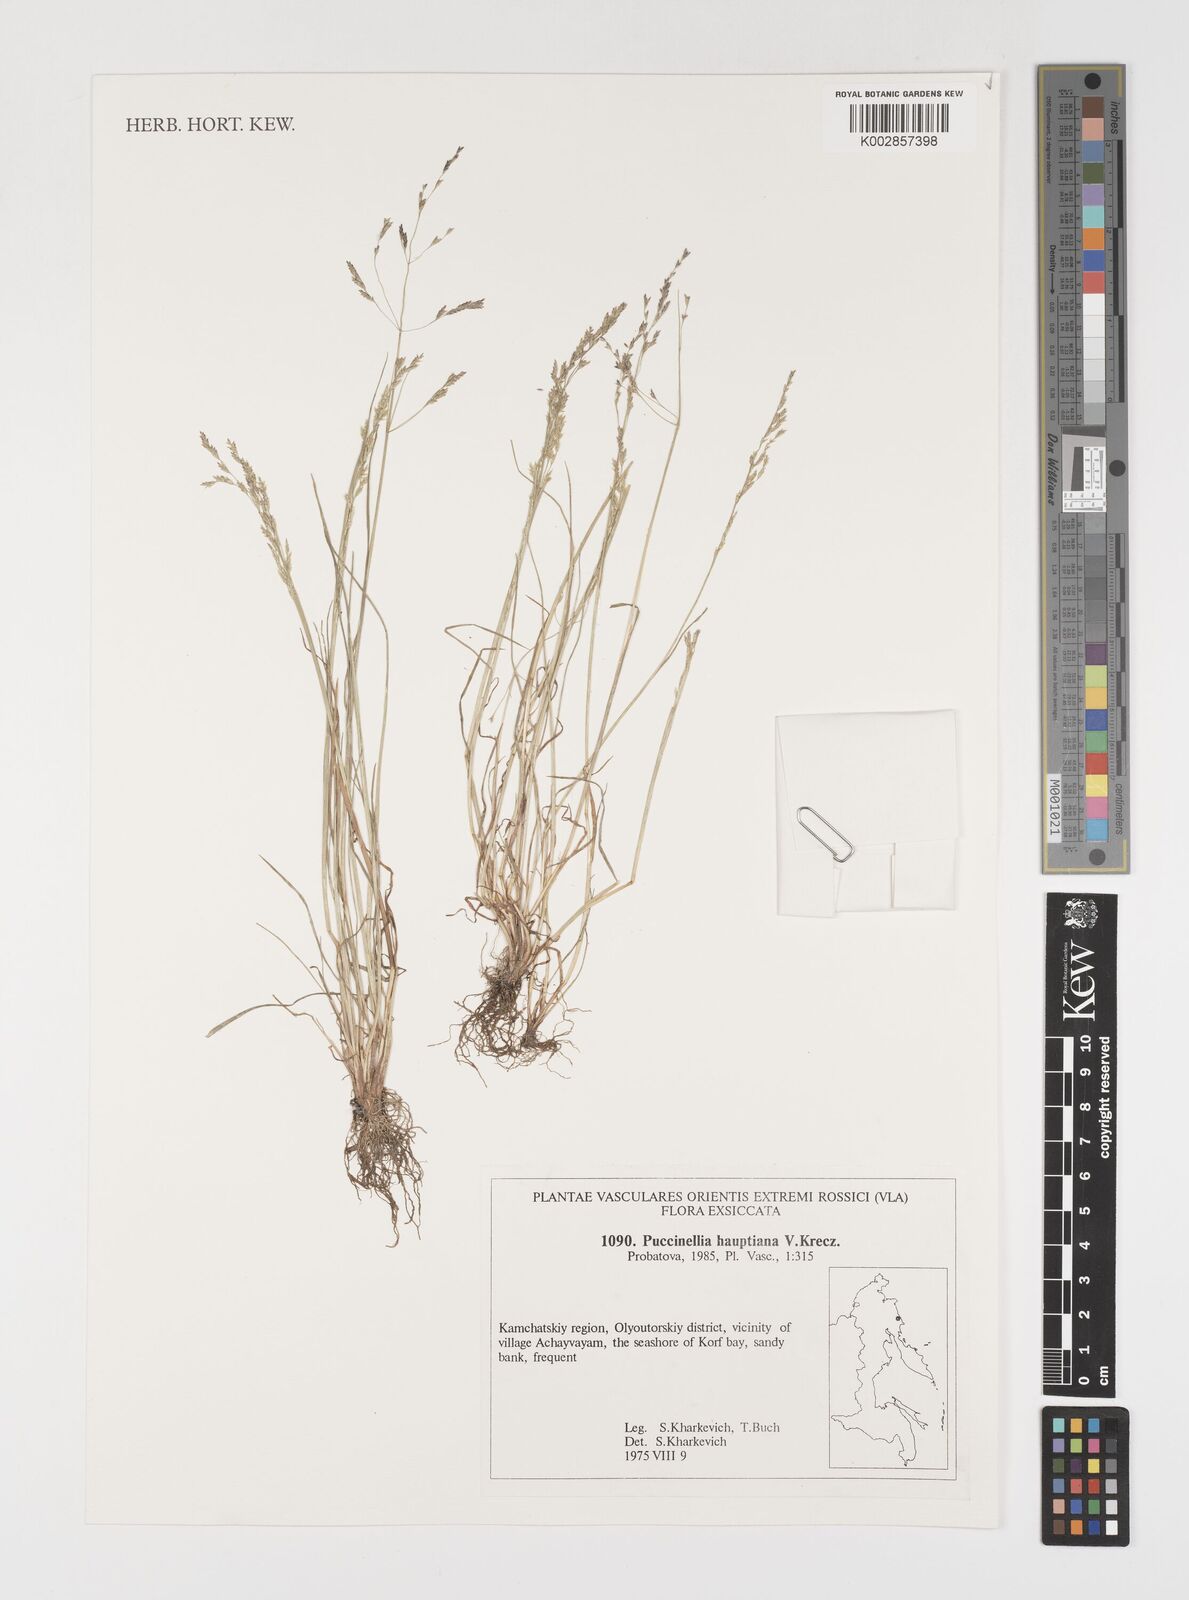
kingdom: Plantae
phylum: Tracheophyta
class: Liliopsida
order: Poales
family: Poaceae
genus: Puccinellia
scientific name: Puccinellia distans
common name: Weeping alkaligrass
